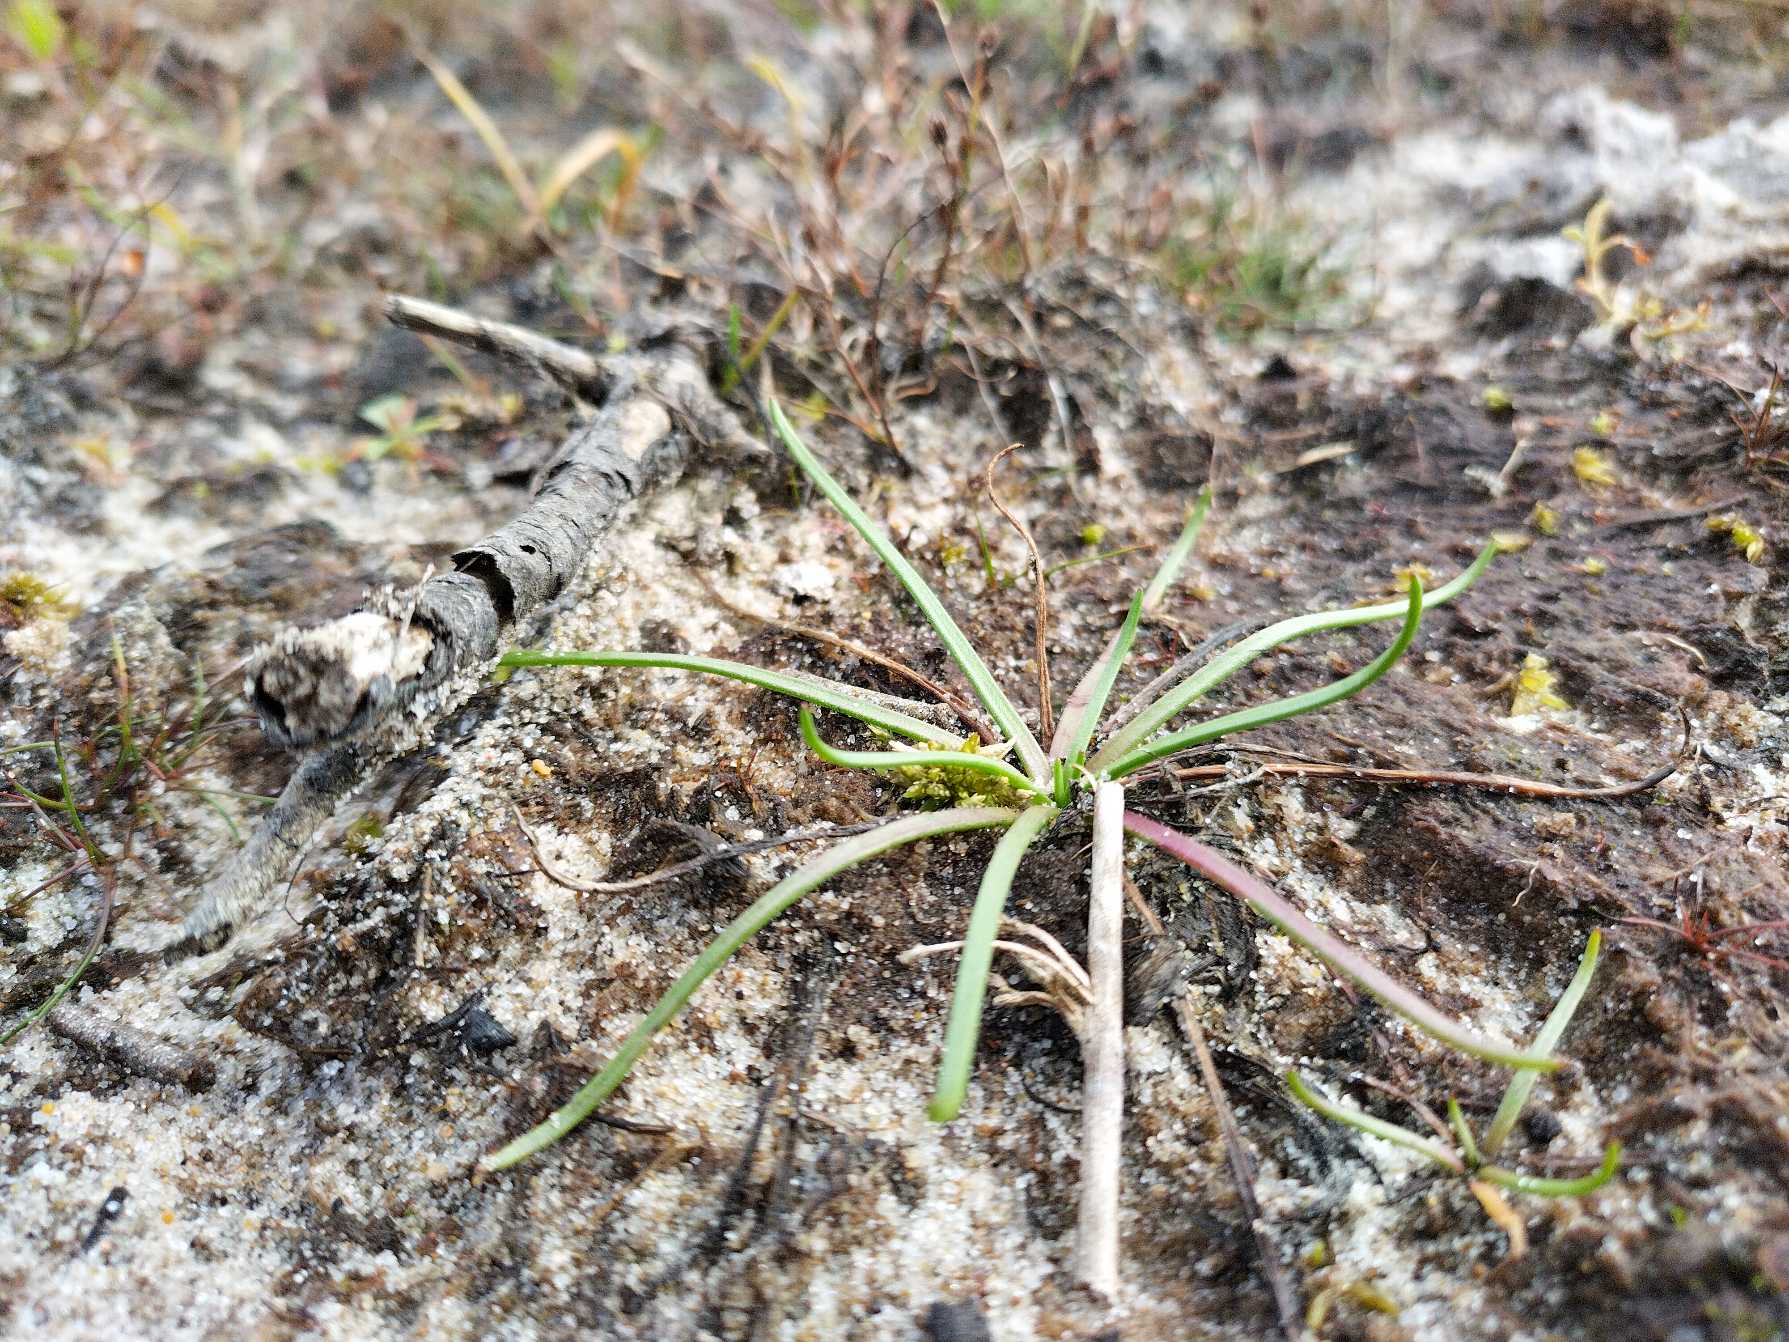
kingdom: Plantae
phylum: Tracheophyta
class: Magnoliopsida
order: Lamiales
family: Plantaginaceae
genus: Littorella
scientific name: Littorella uniflora
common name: Strandbo
